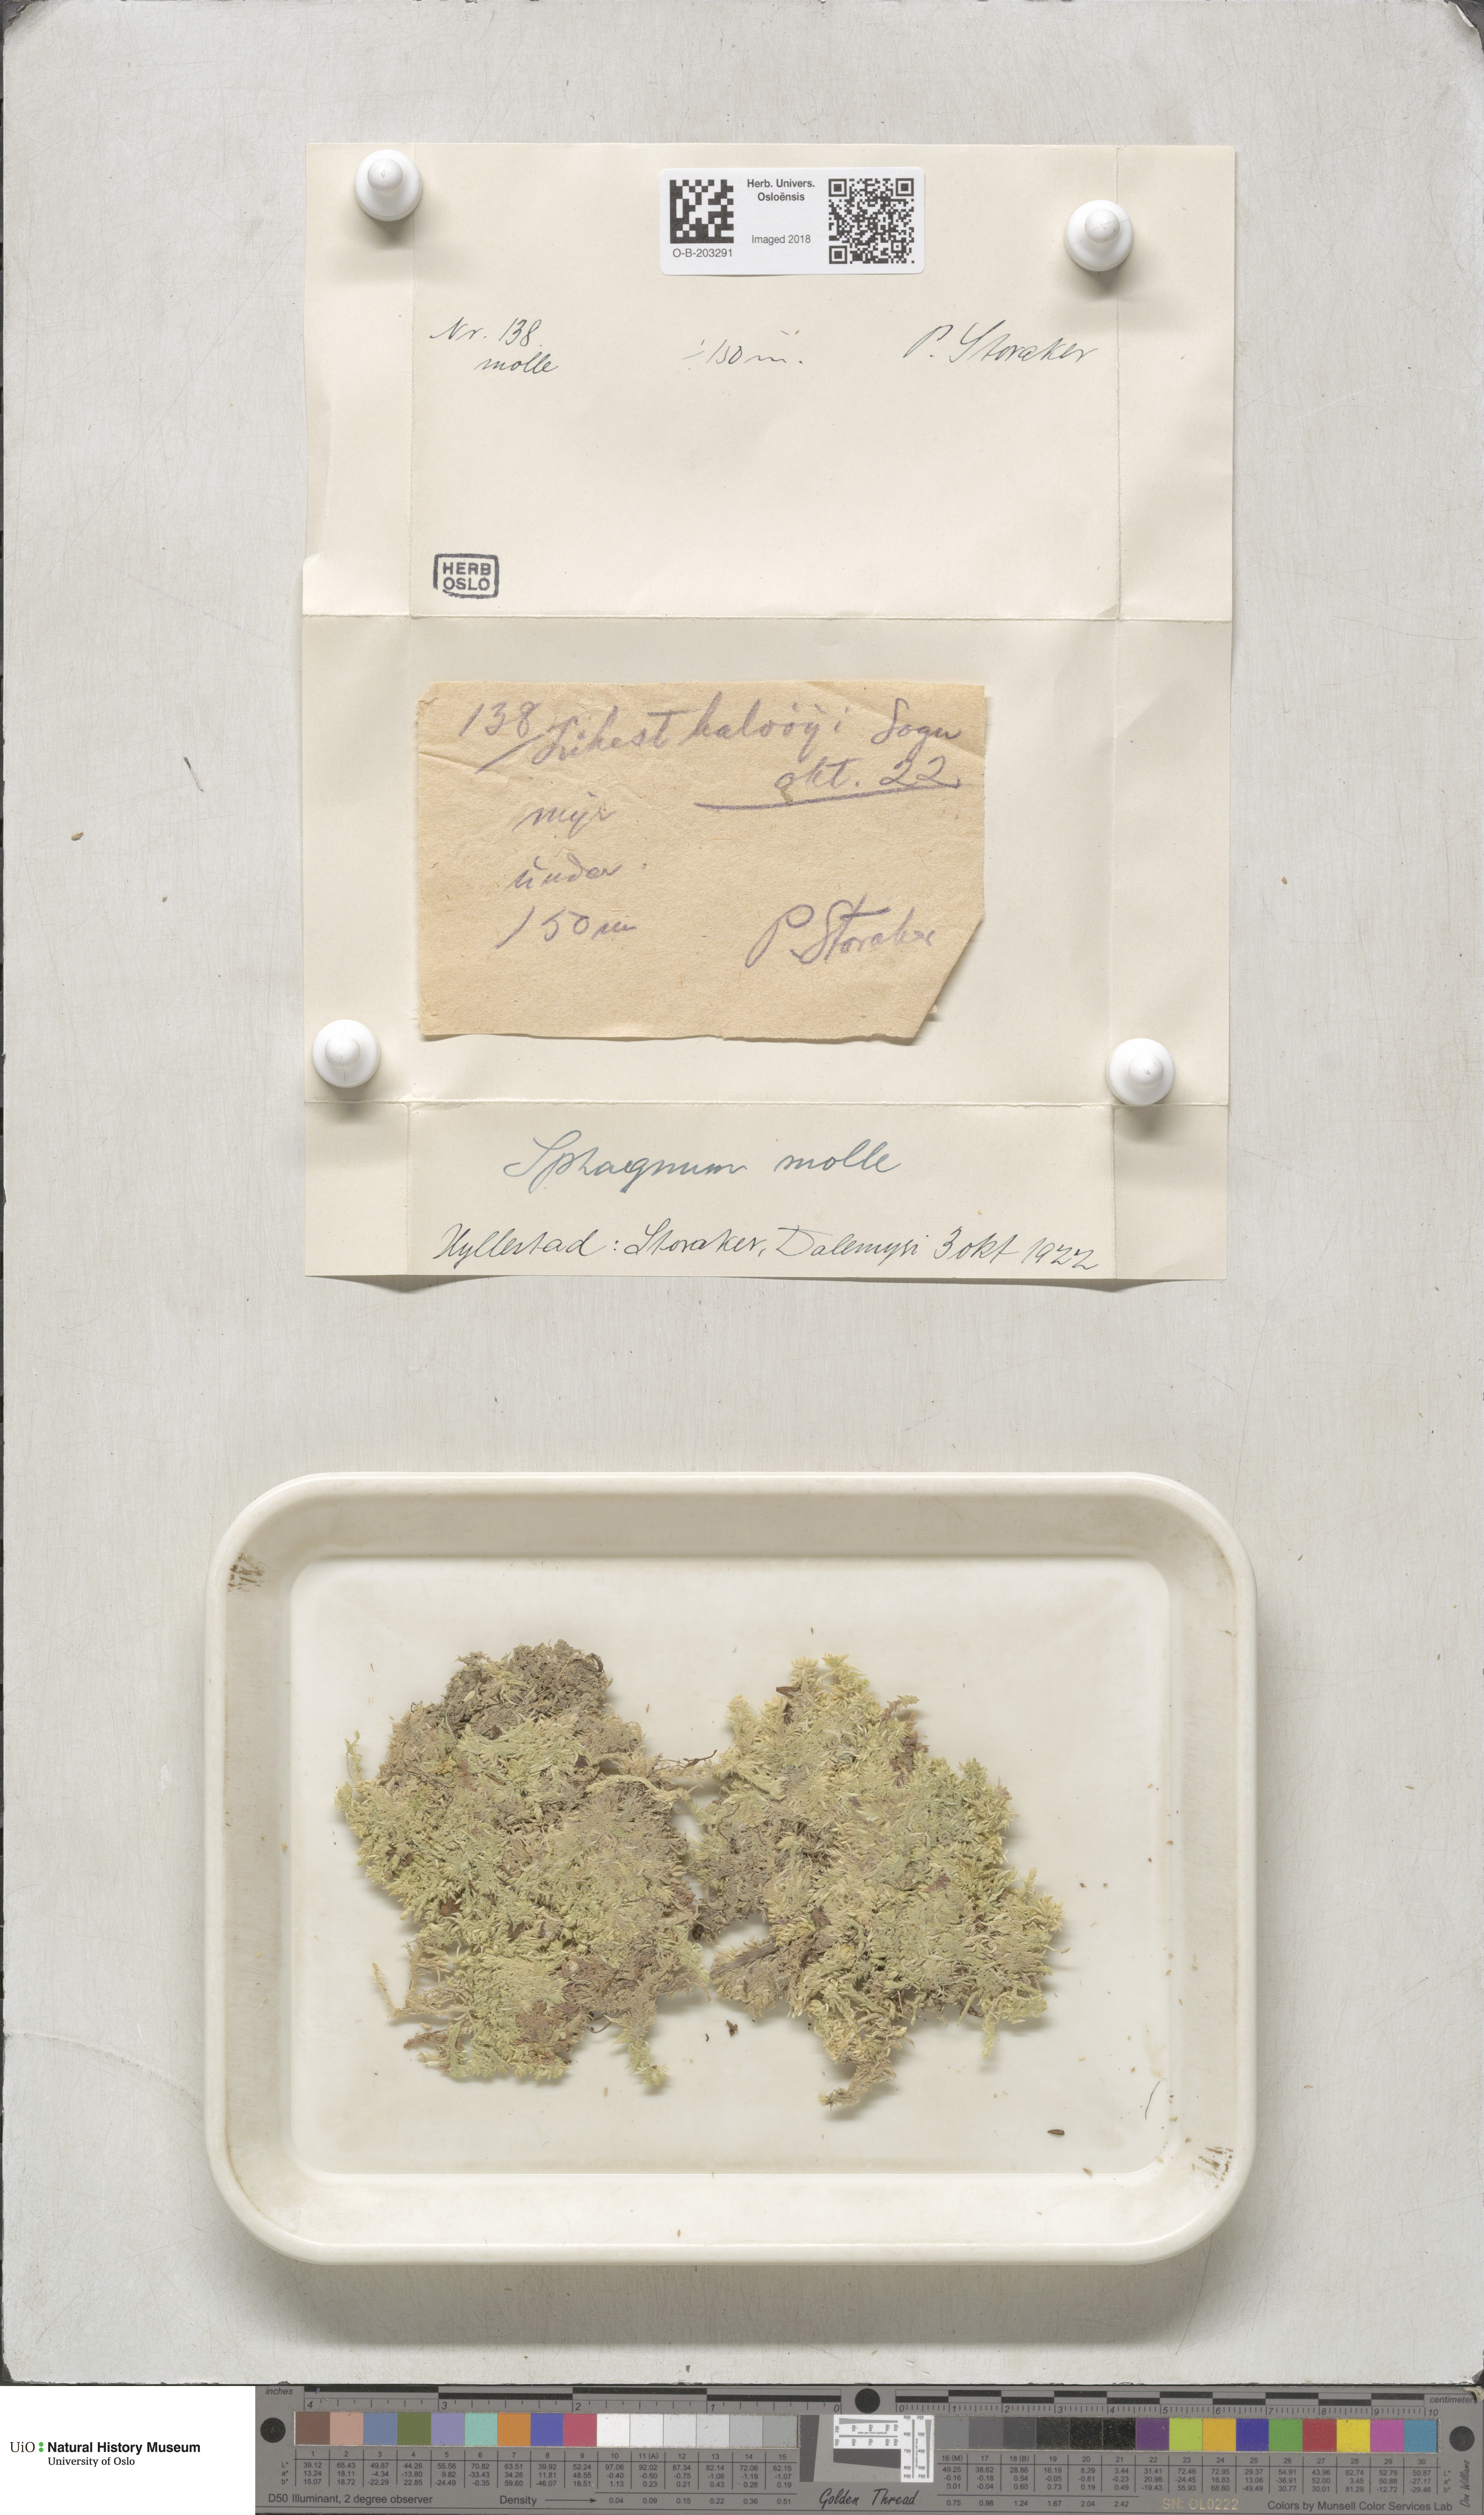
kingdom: Plantae
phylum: Bryophyta
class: Sphagnopsida
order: Sphagnales
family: Sphagnaceae
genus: Sphagnum
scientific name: Sphagnum molle
